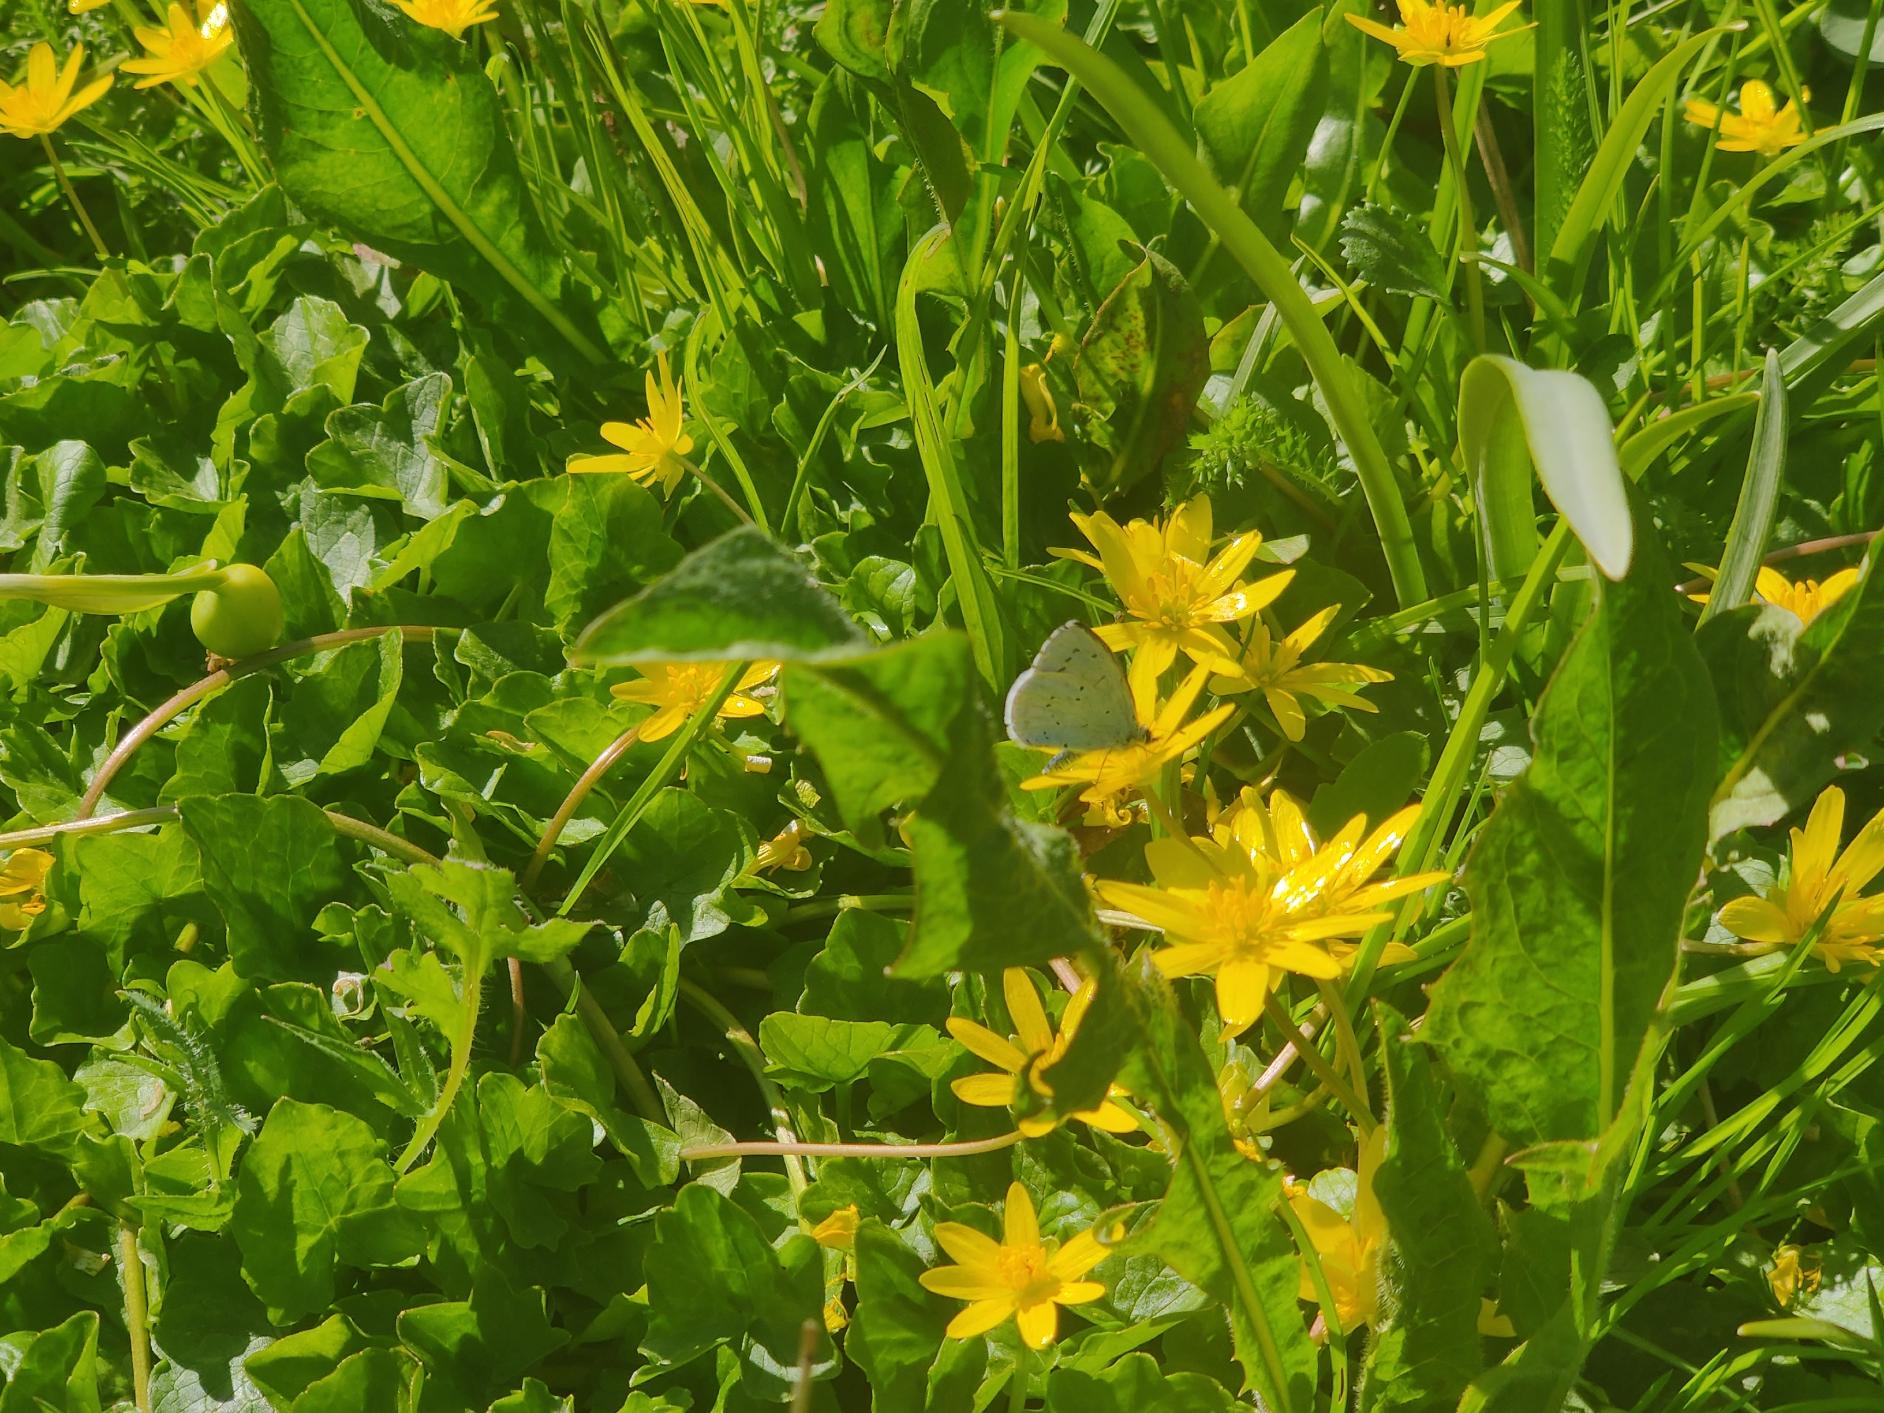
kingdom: Animalia
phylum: Arthropoda
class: Insecta
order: Lepidoptera
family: Lycaenidae
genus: Celastrina
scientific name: Celastrina argiolus
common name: Skovblåfugl
